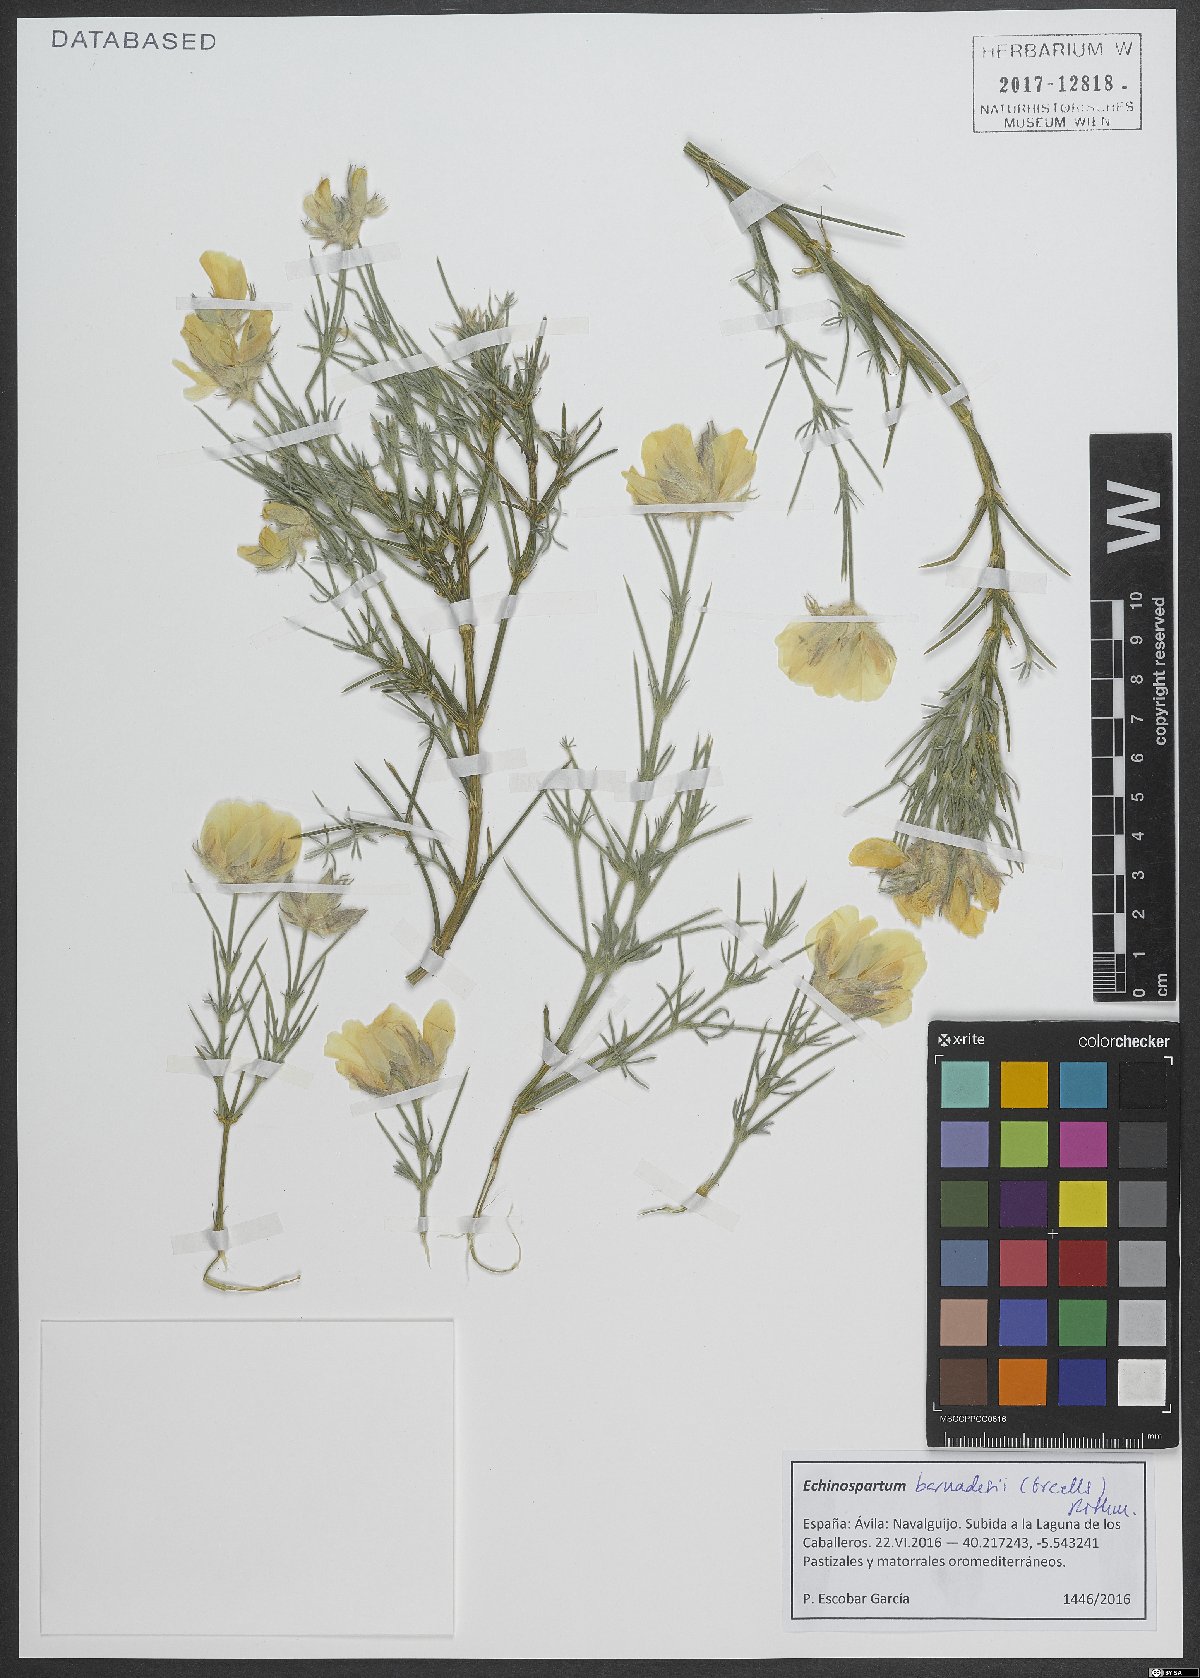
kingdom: Plantae
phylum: Tracheophyta
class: Magnoliopsida
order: Fabales
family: Fabaceae
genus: Echinospartum
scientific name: Echinospartum barnadesii
